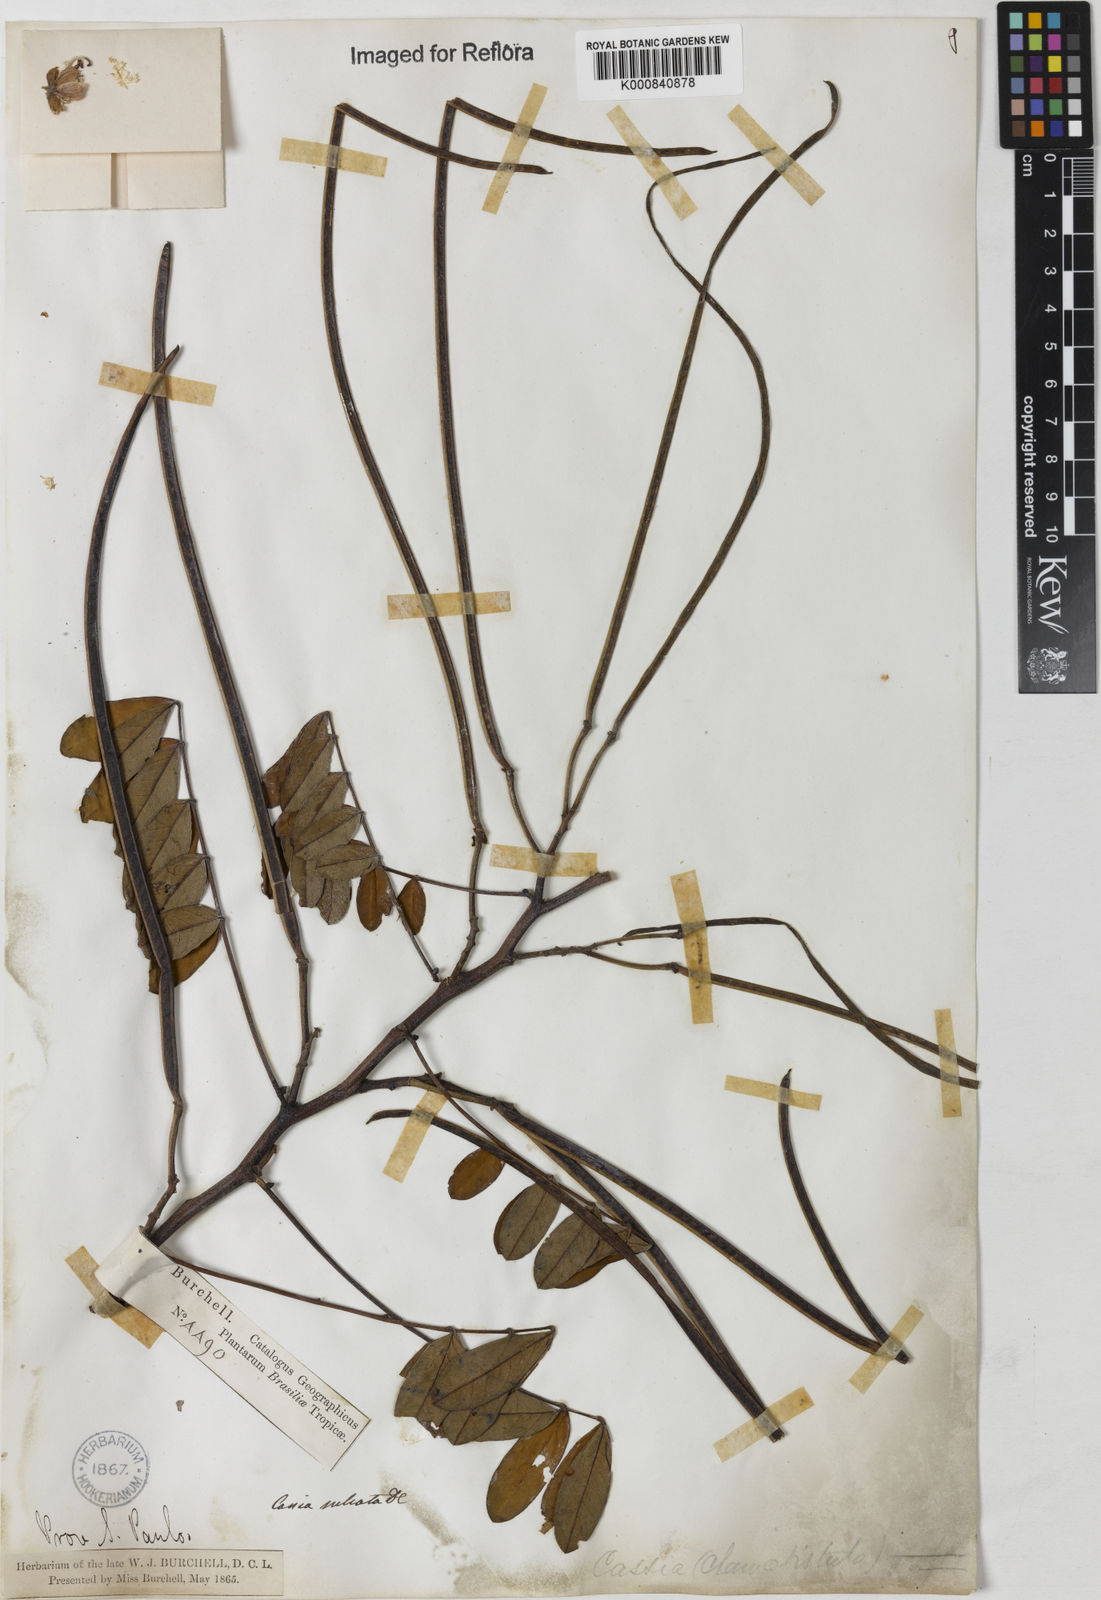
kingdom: Plantae
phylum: Tracheophyta
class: Magnoliopsida
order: Fabales
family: Fabaceae
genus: Senna
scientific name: Senna cernua
